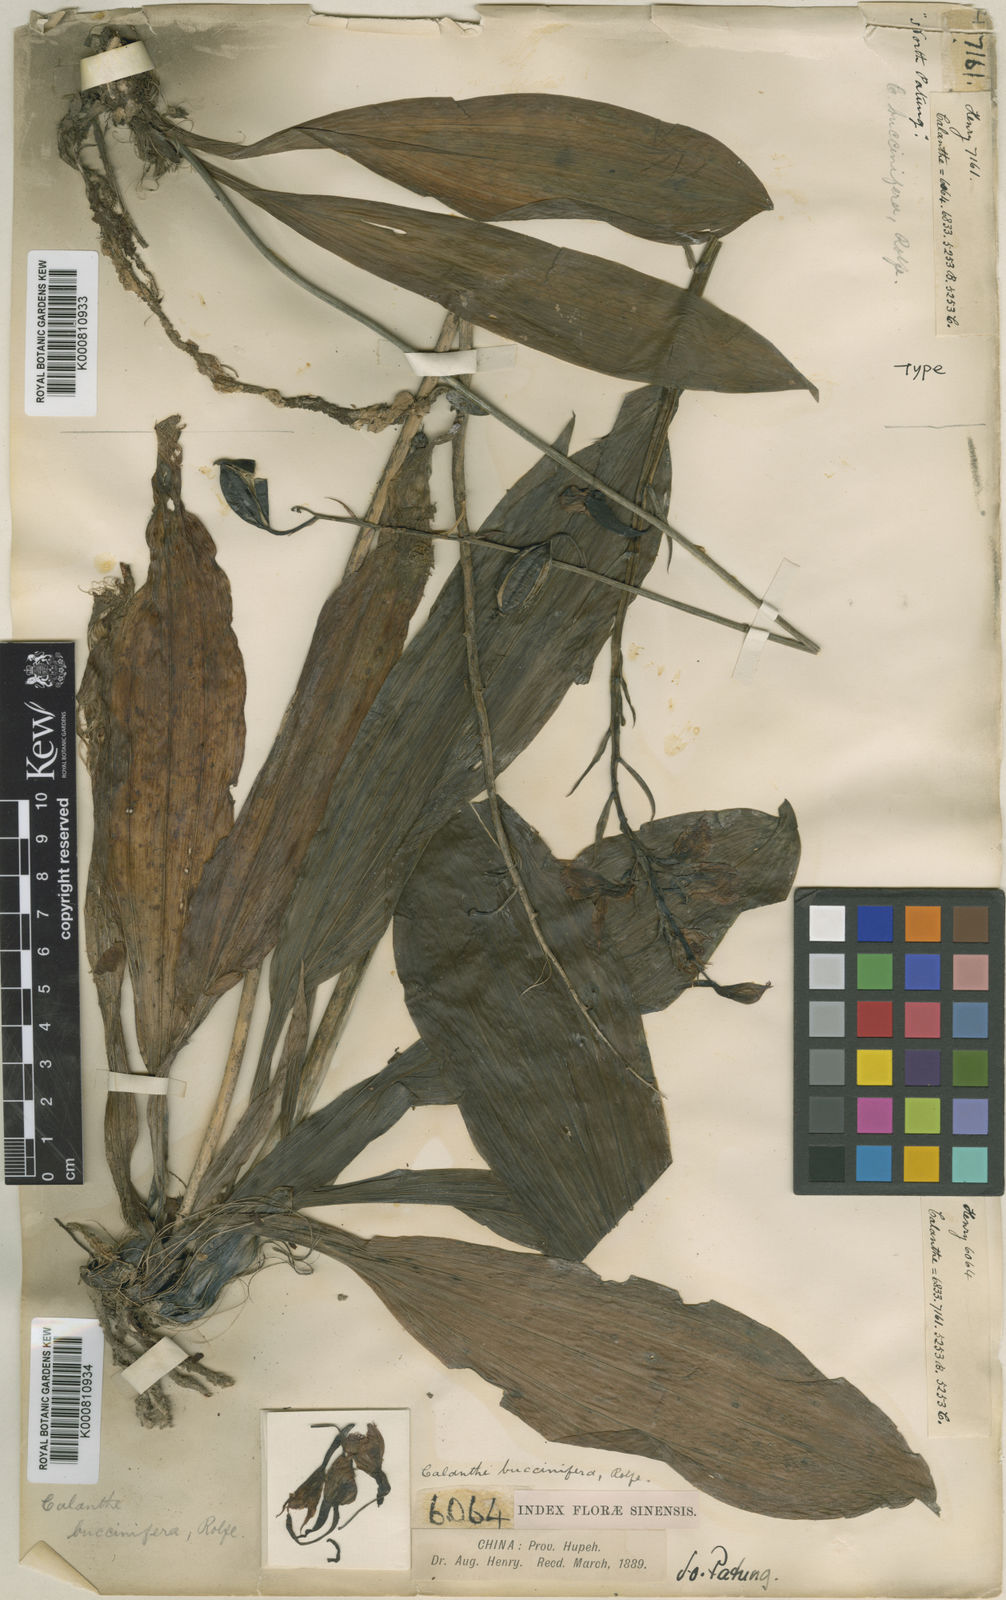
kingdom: Plantae
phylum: Tracheophyta
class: Liliopsida
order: Asparagales
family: Orchidaceae
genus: Calanthe
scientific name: Calanthe alpina
